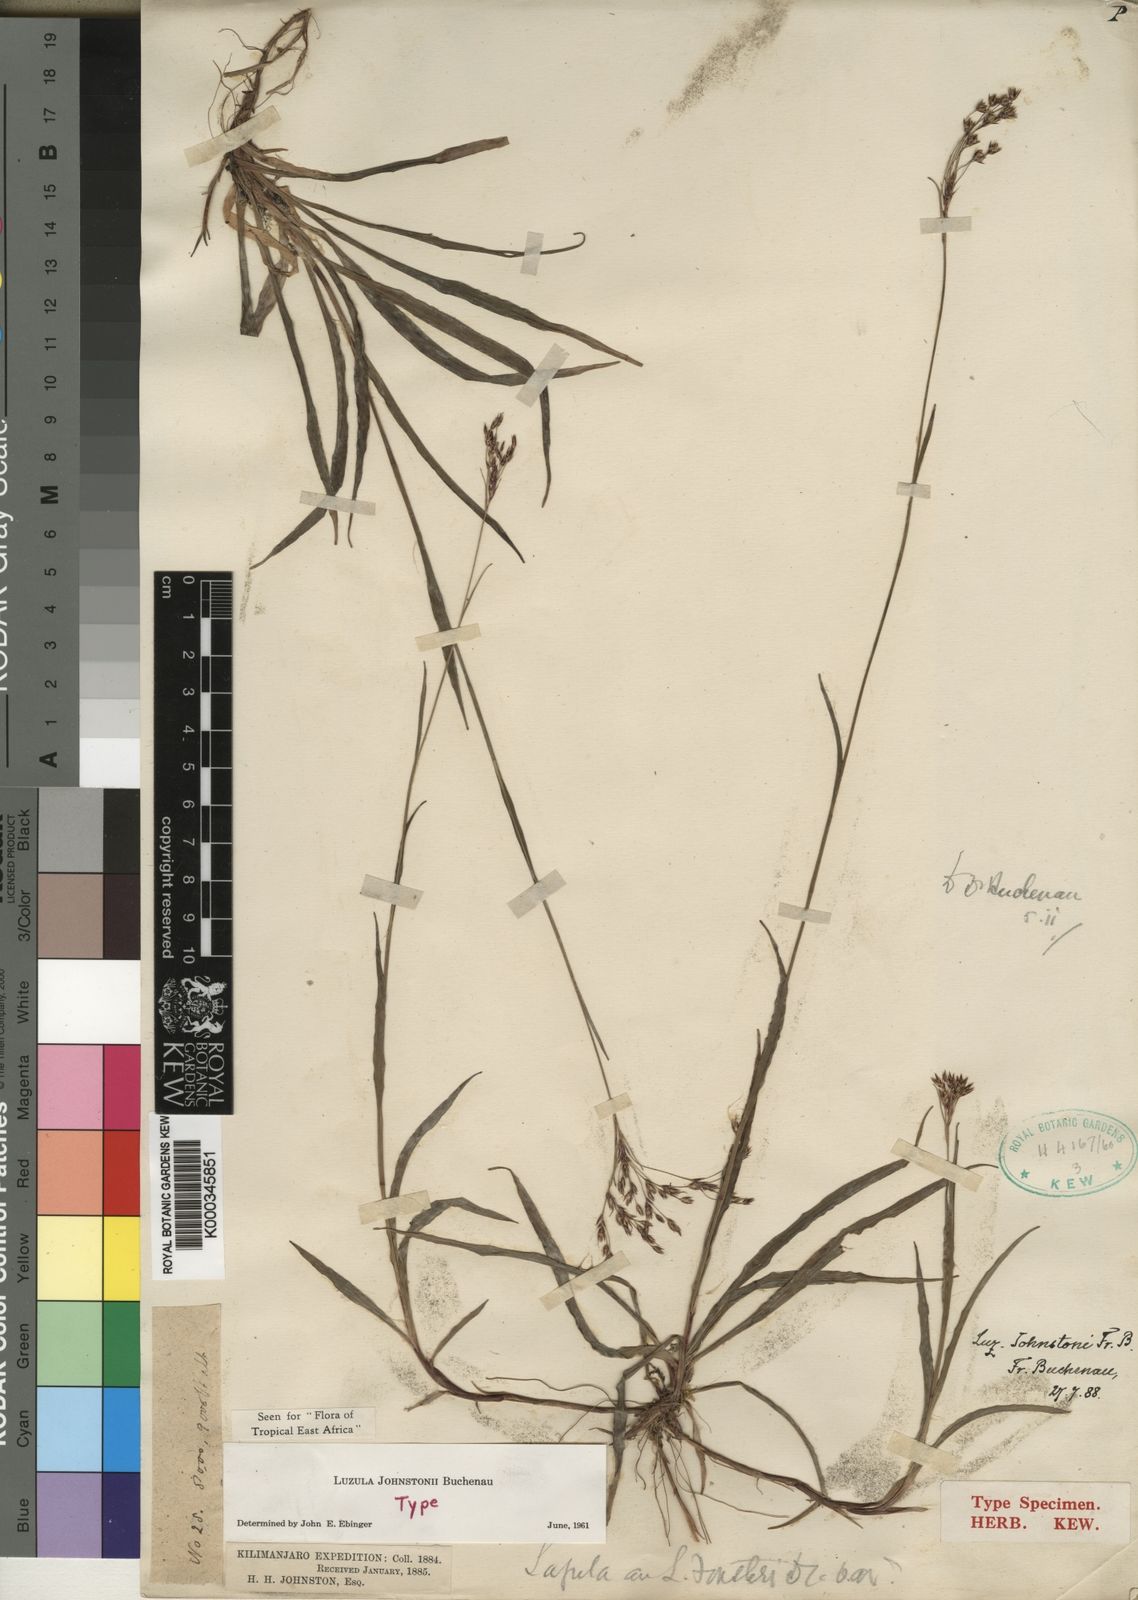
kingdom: Plantae
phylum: Tracheophyta
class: Liliopsida
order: Poales
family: Juncaceae
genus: Luzula
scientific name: Luzula johnstonii
